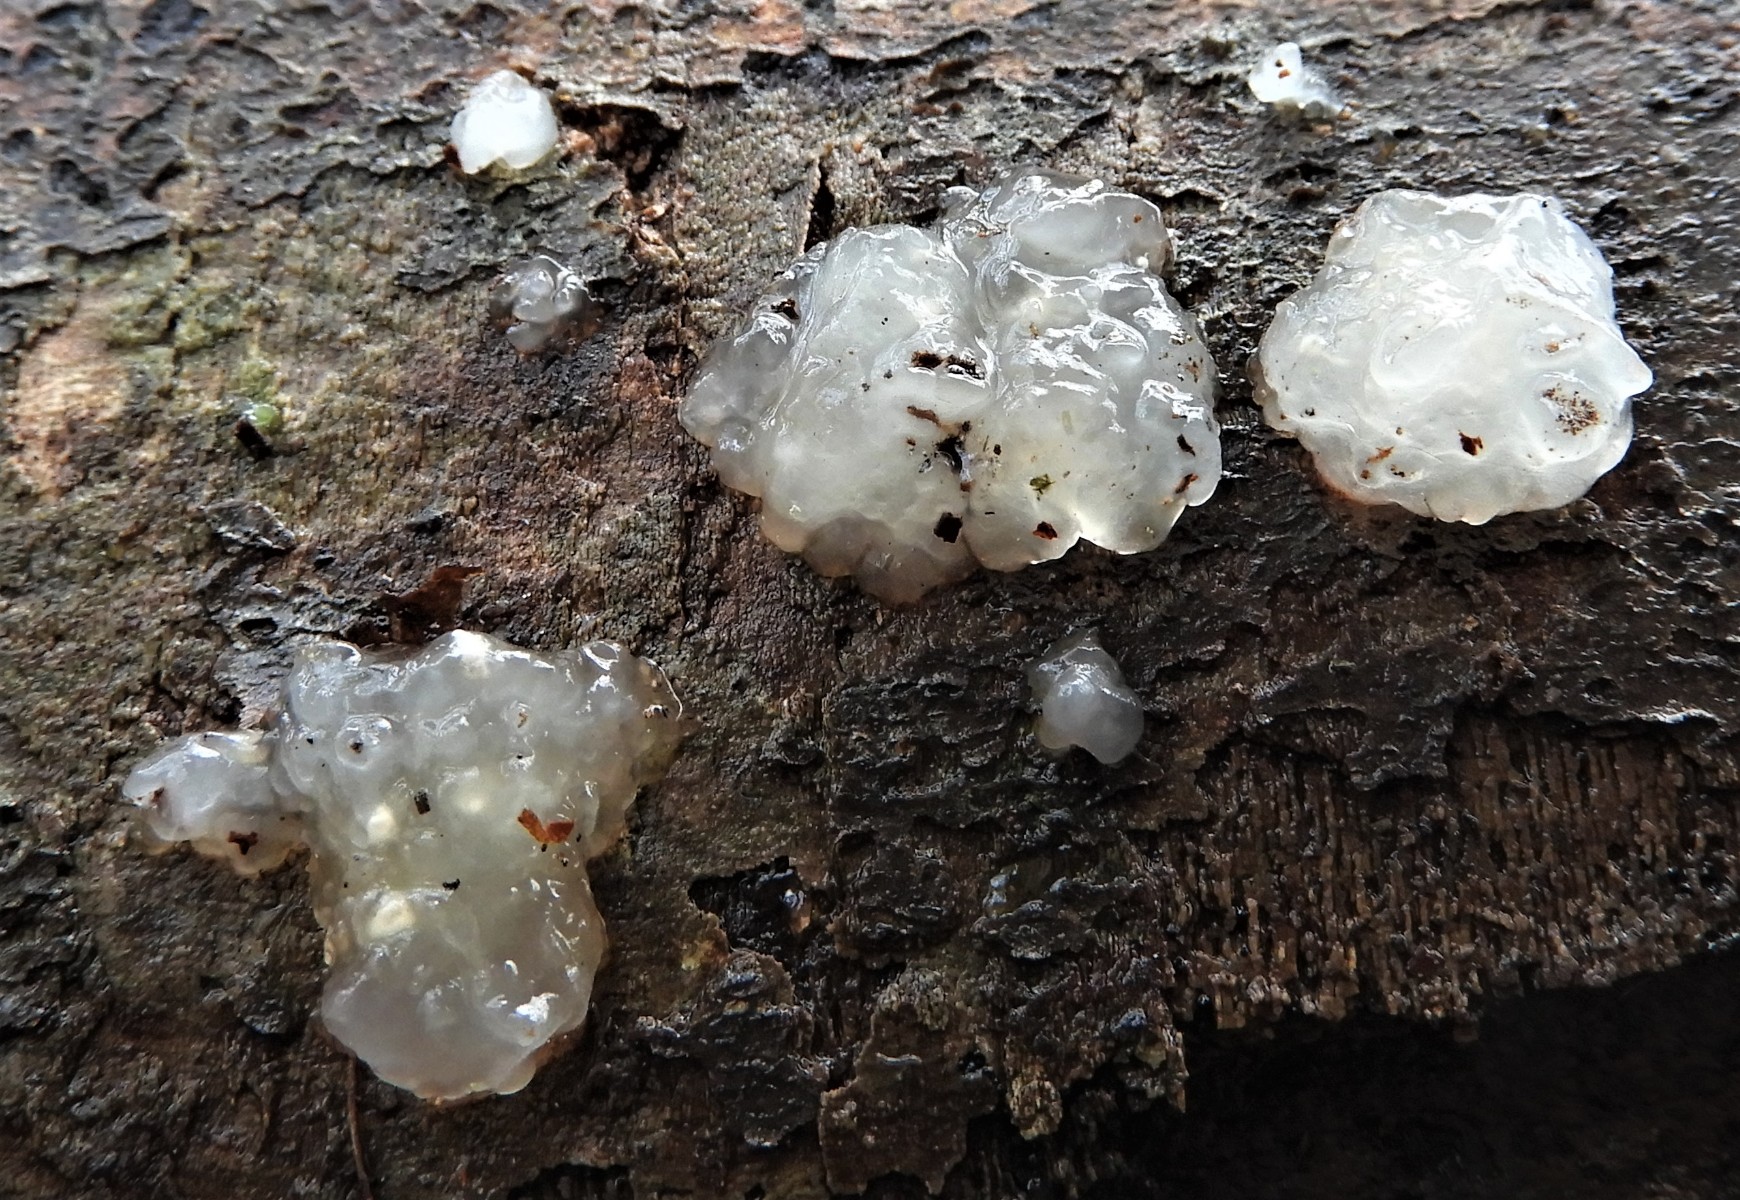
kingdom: Fungi
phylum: Basidiomycota
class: Agaricomycetes
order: Auriculariales
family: Hyaloriaceae
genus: Myxarium
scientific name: Myxarium nucleatum
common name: klar bævretop
